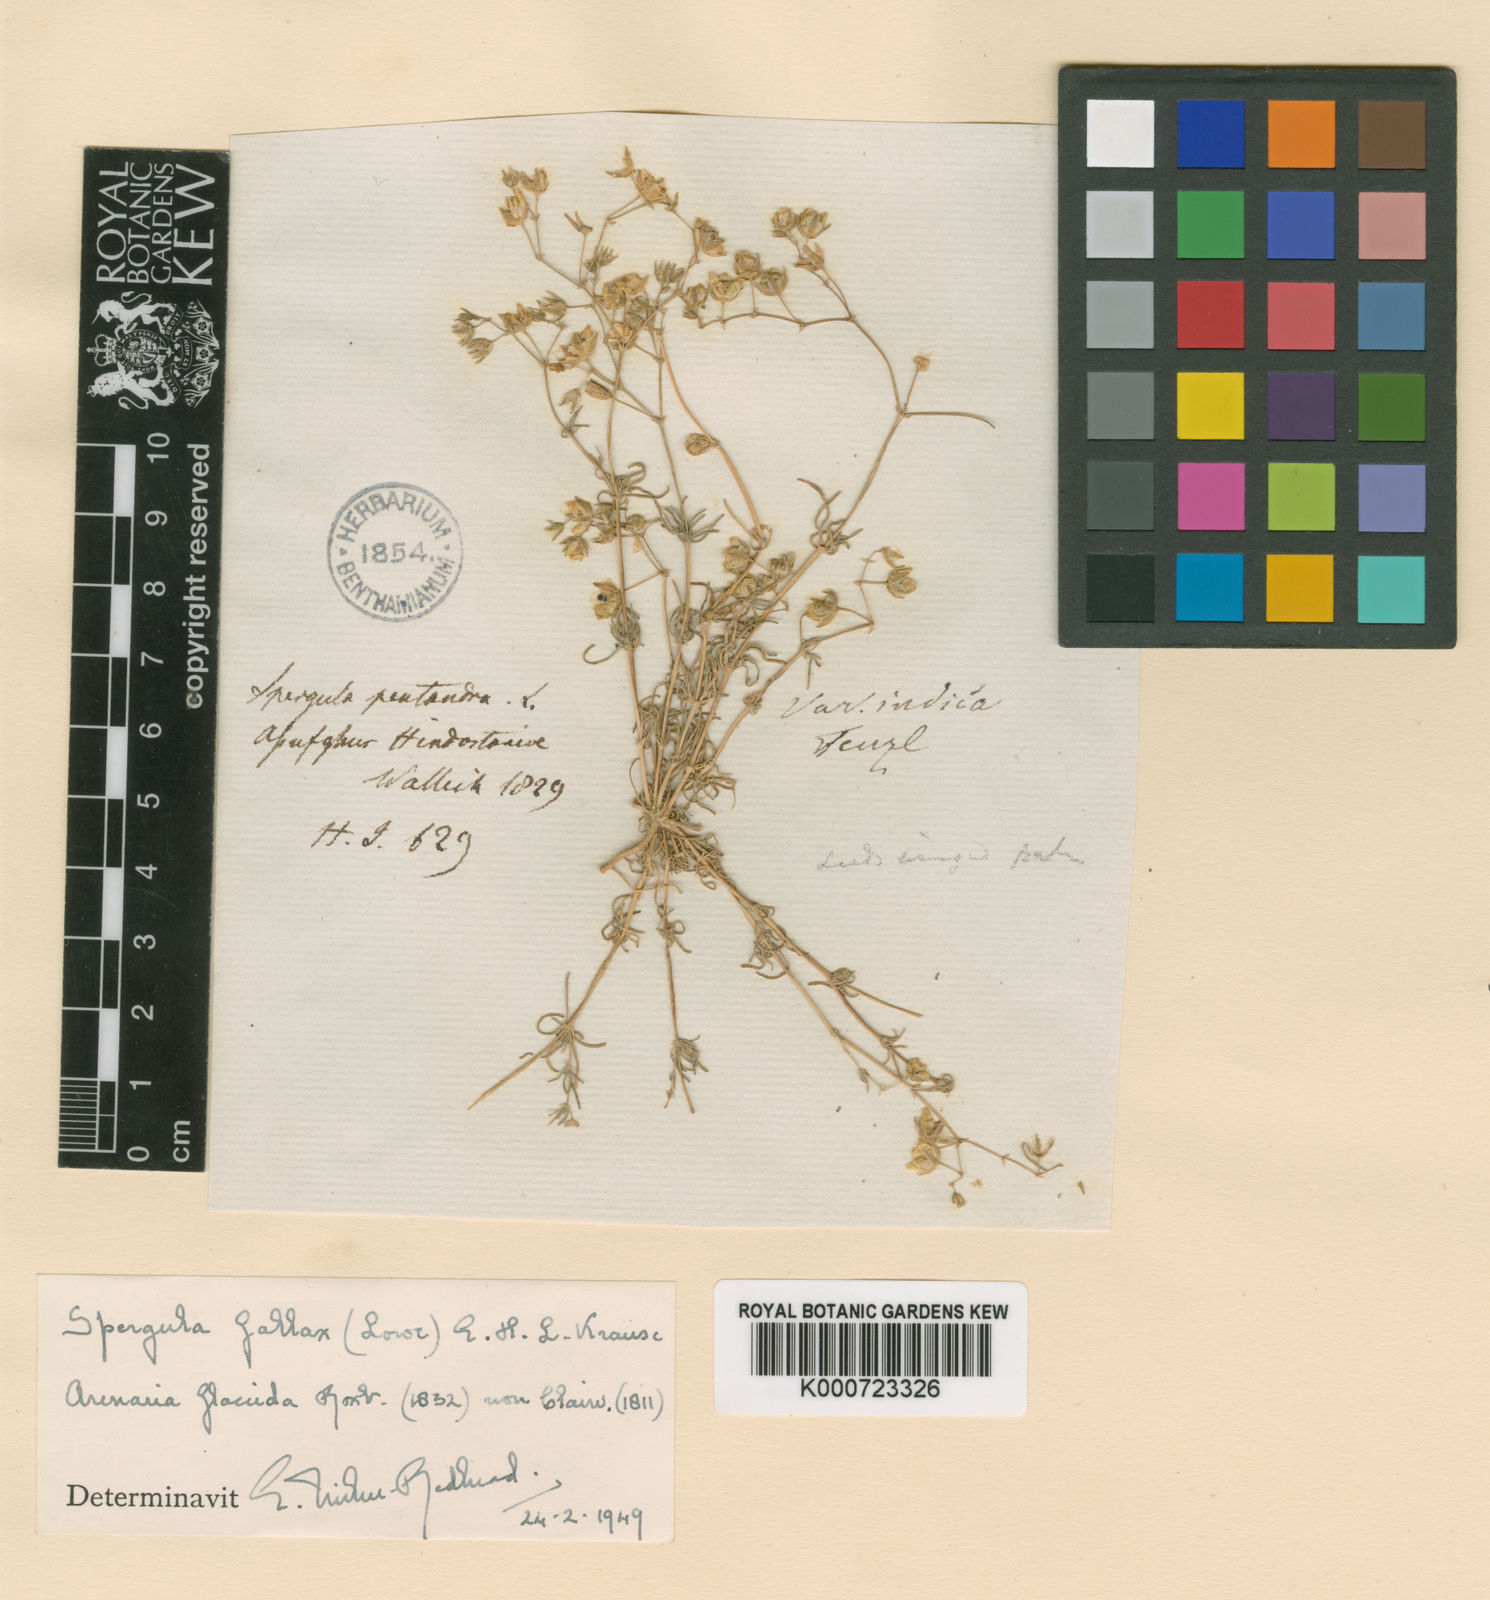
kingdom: Plantae
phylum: Tracheophyta
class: Magnoliopsida
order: Caryophyllales
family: Caryophyllaceae
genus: Spergularia
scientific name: Spergularia flaccida
